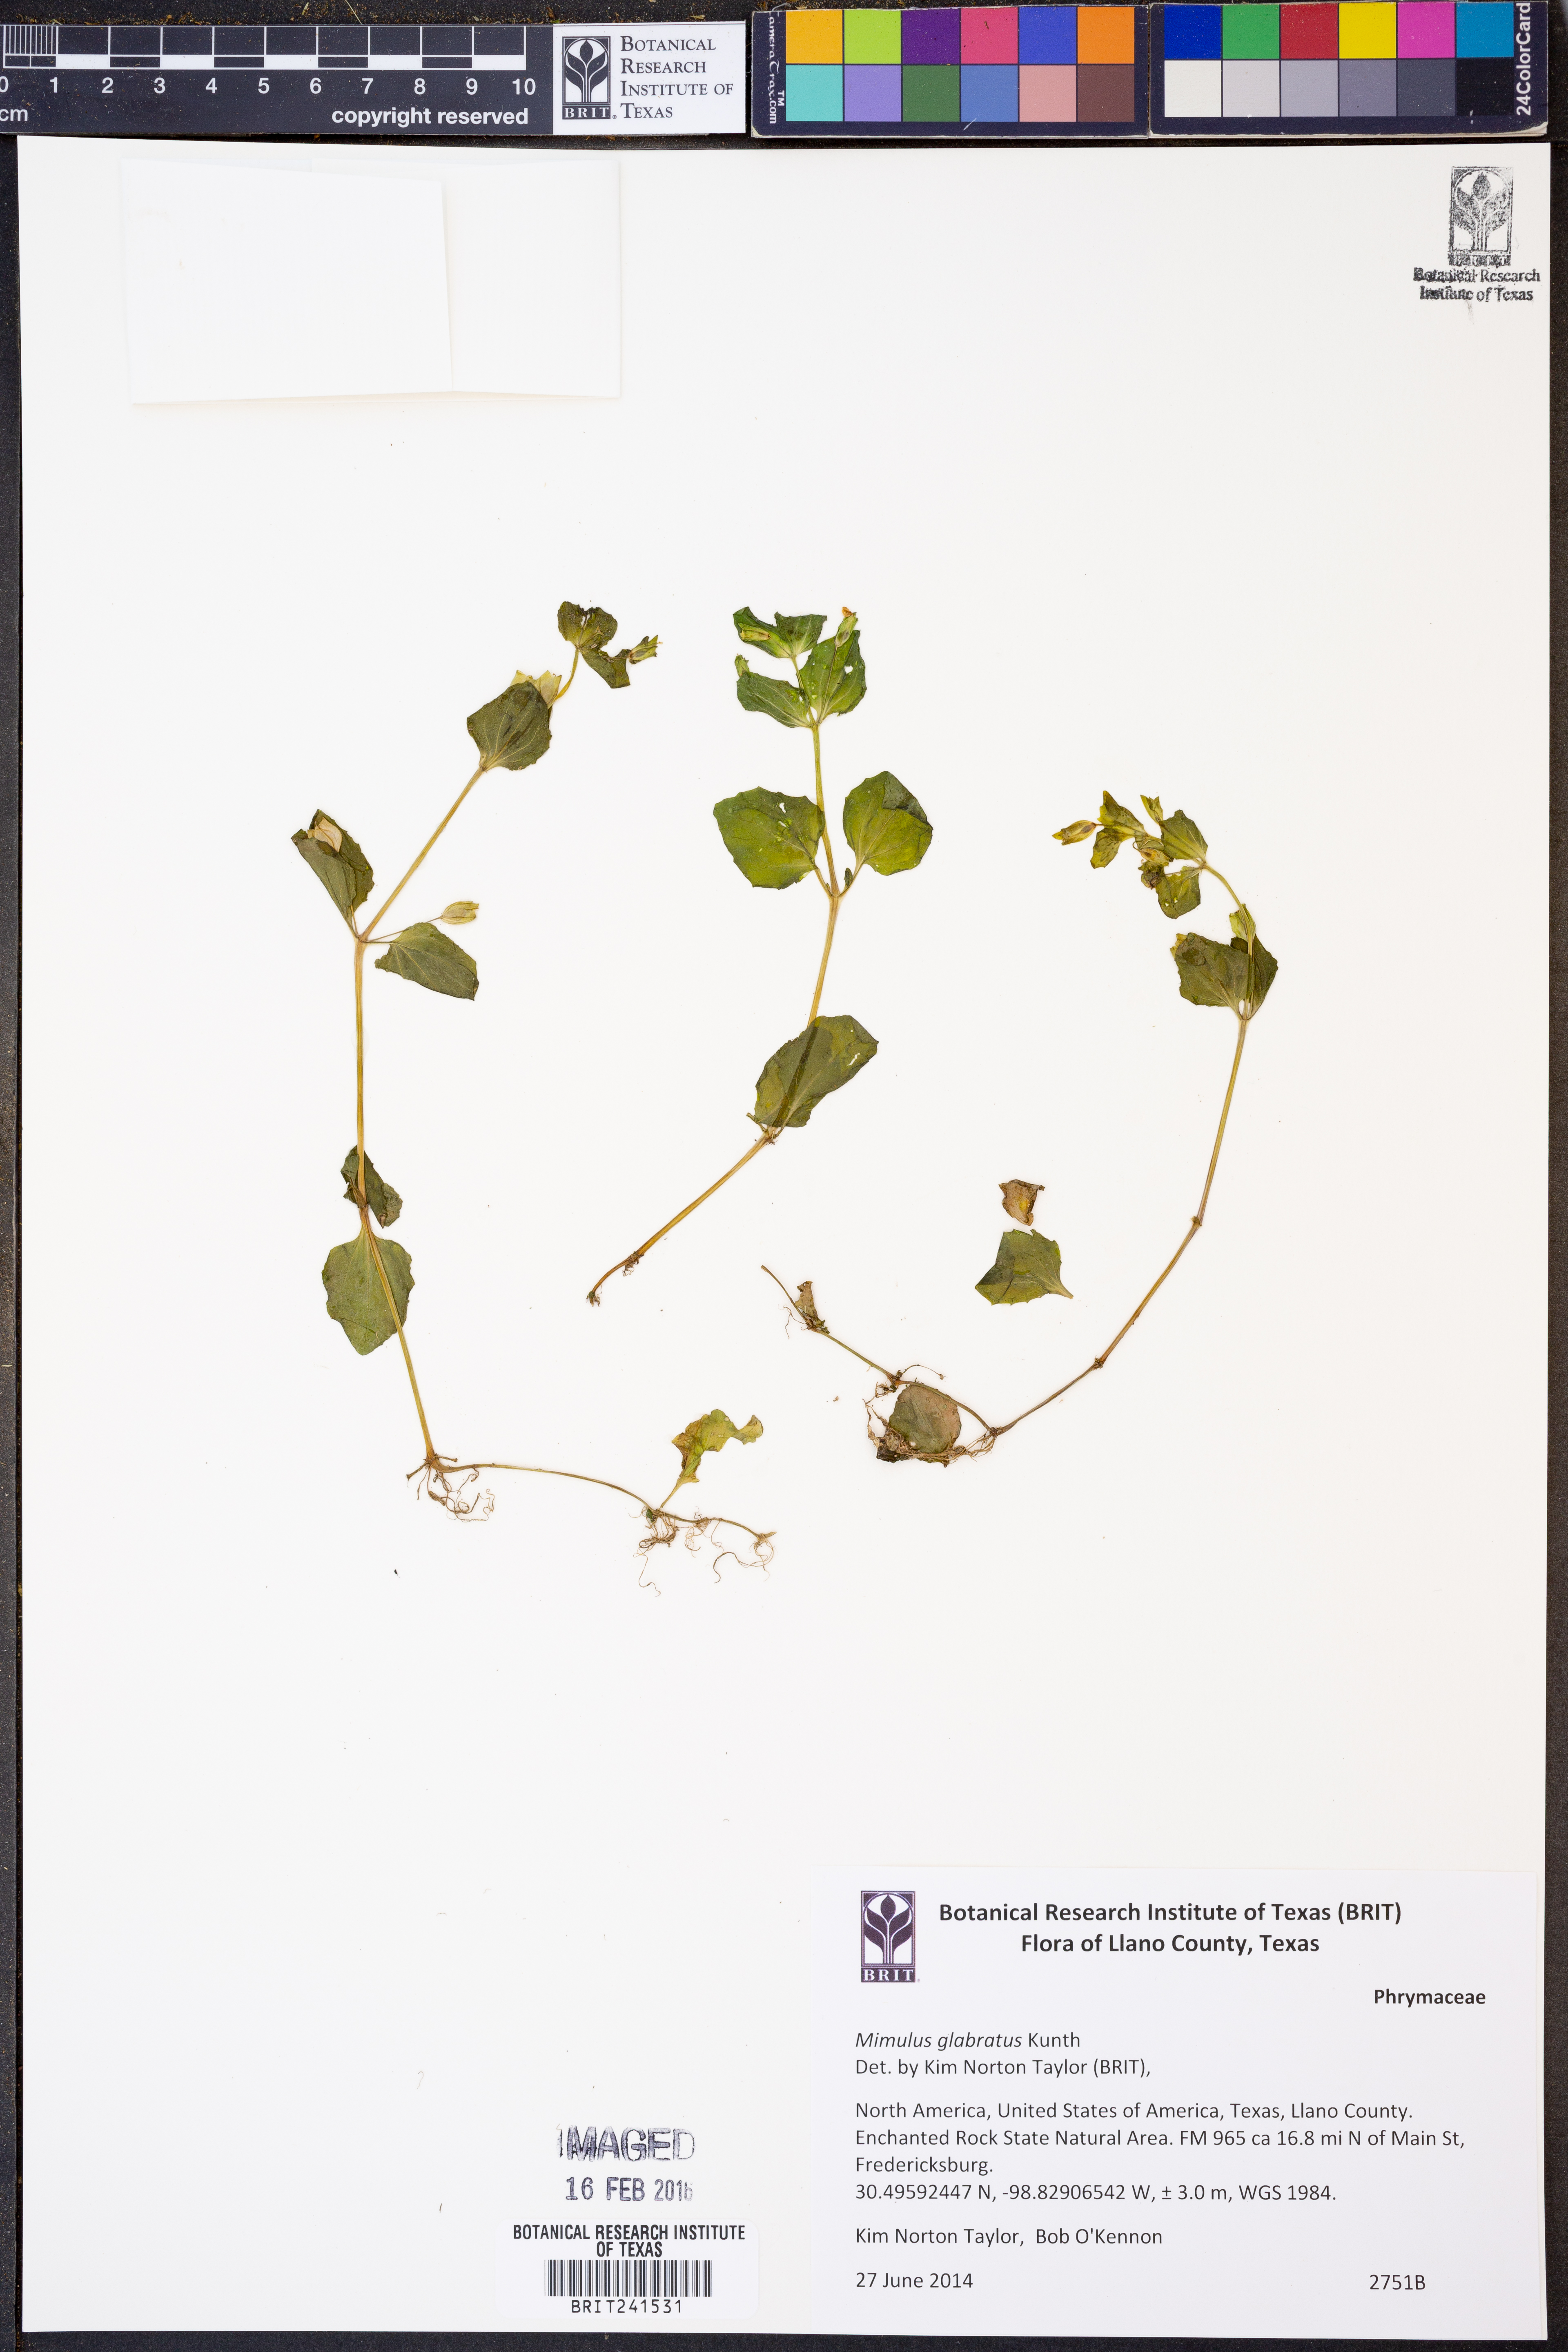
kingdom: Plantae
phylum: Tracheophyta
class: Magnoliopsida
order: Lamiales
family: Phrymaceae
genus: Erythranthe
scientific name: Erythranthe glabrata
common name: Round-leaved monkeyflower
